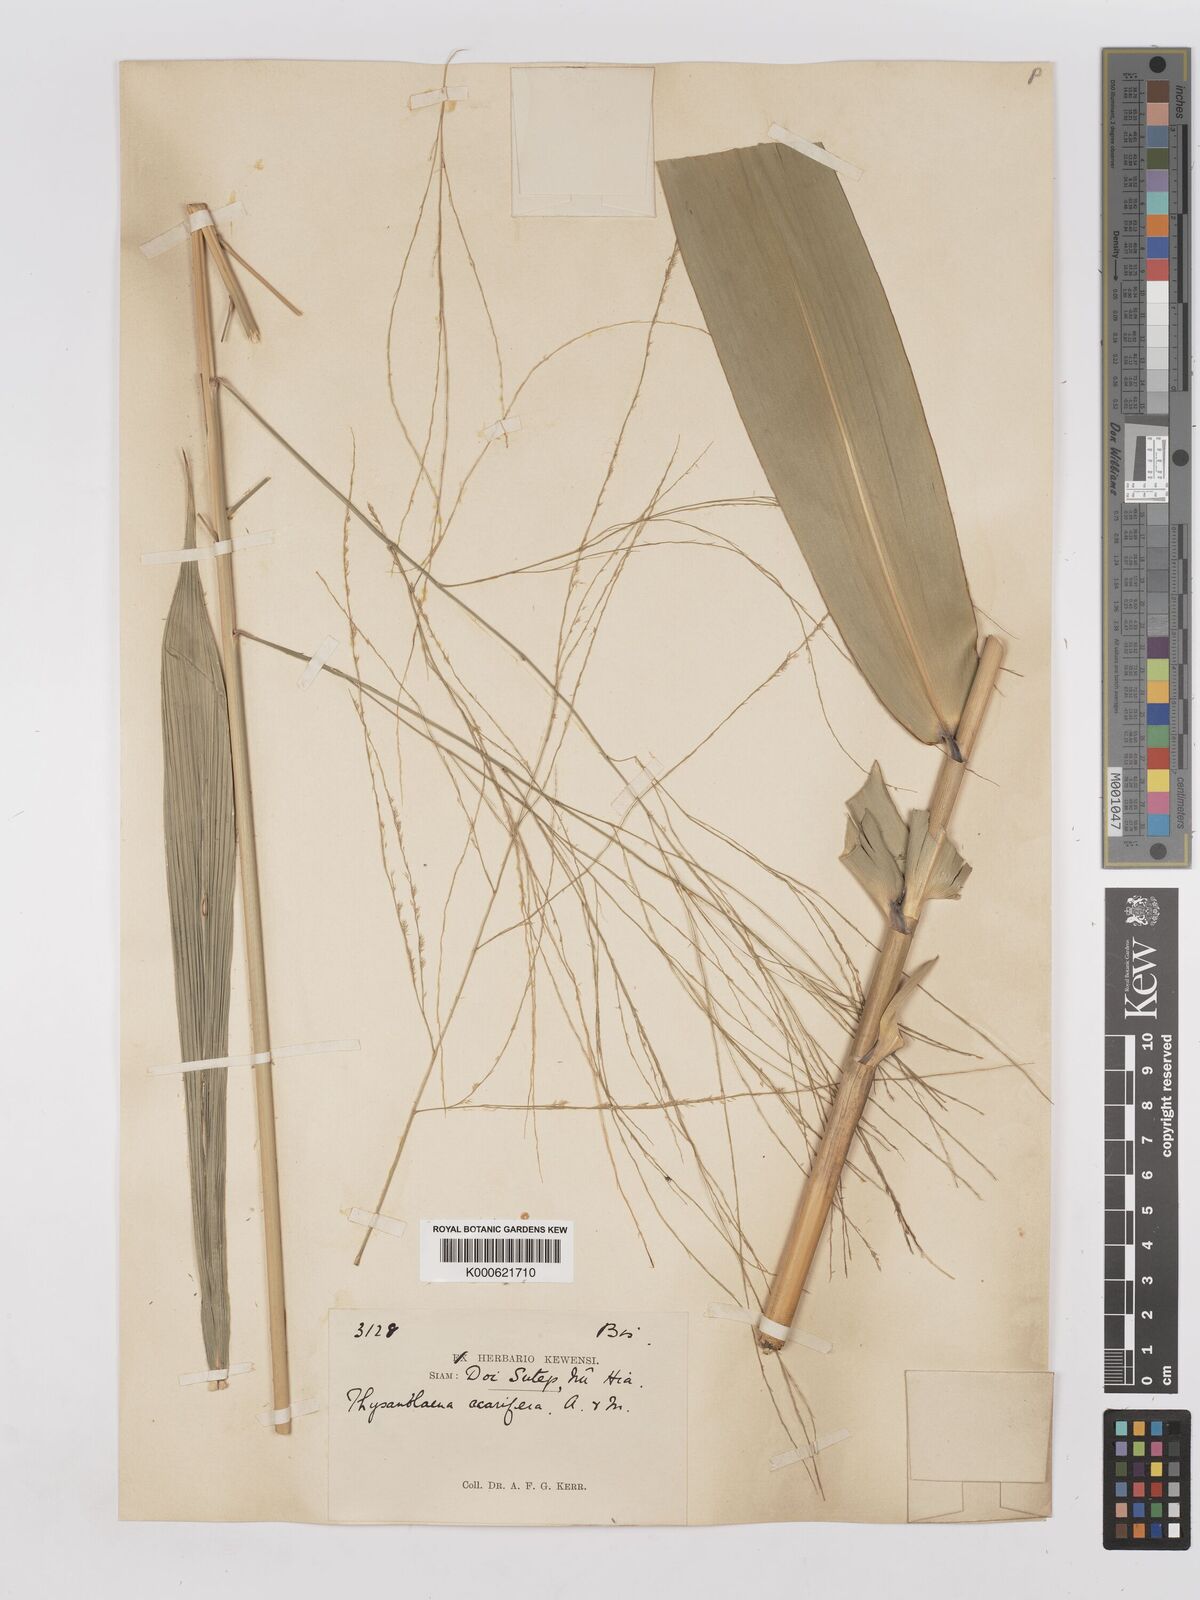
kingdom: Plantae
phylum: Tracheophyta
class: Liliopsida
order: Poales
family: Poaceae
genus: Thysanolaena
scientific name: Thysanolaena latifolia
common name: Tiger grass
